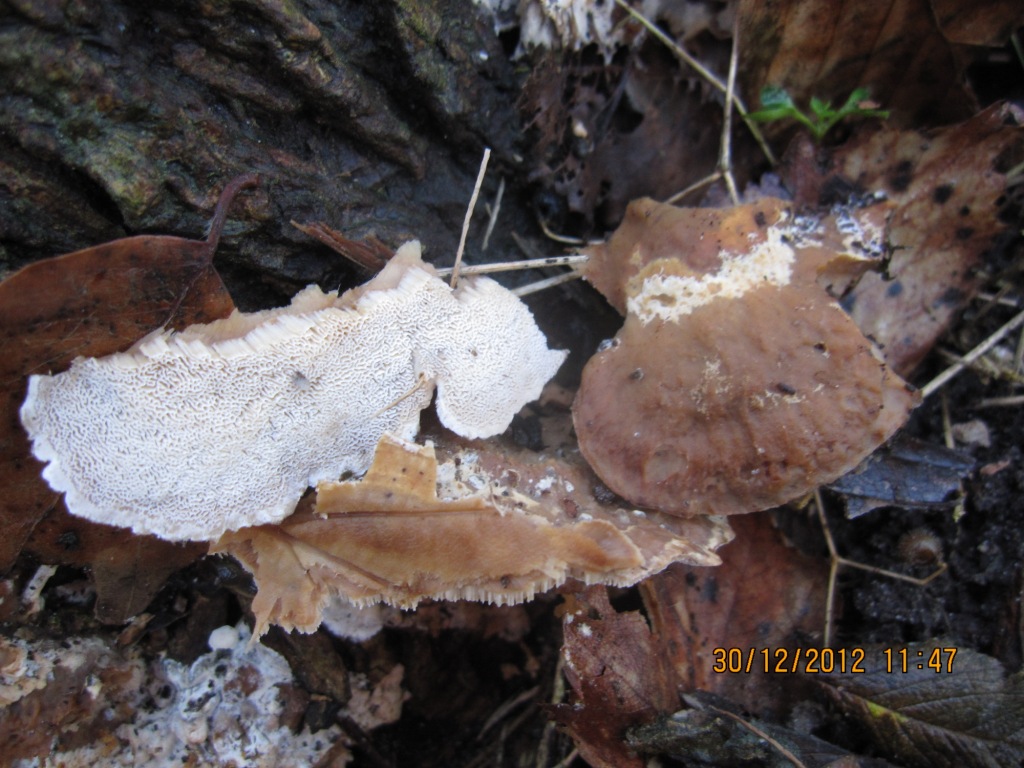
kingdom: Fungi
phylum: Basidiomycota
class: Agaricomycetes
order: Polyporales
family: Phanerochaetaceae
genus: Bjerkandera
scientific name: Bjerkandera fumosa
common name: grågul sodporesvamp
